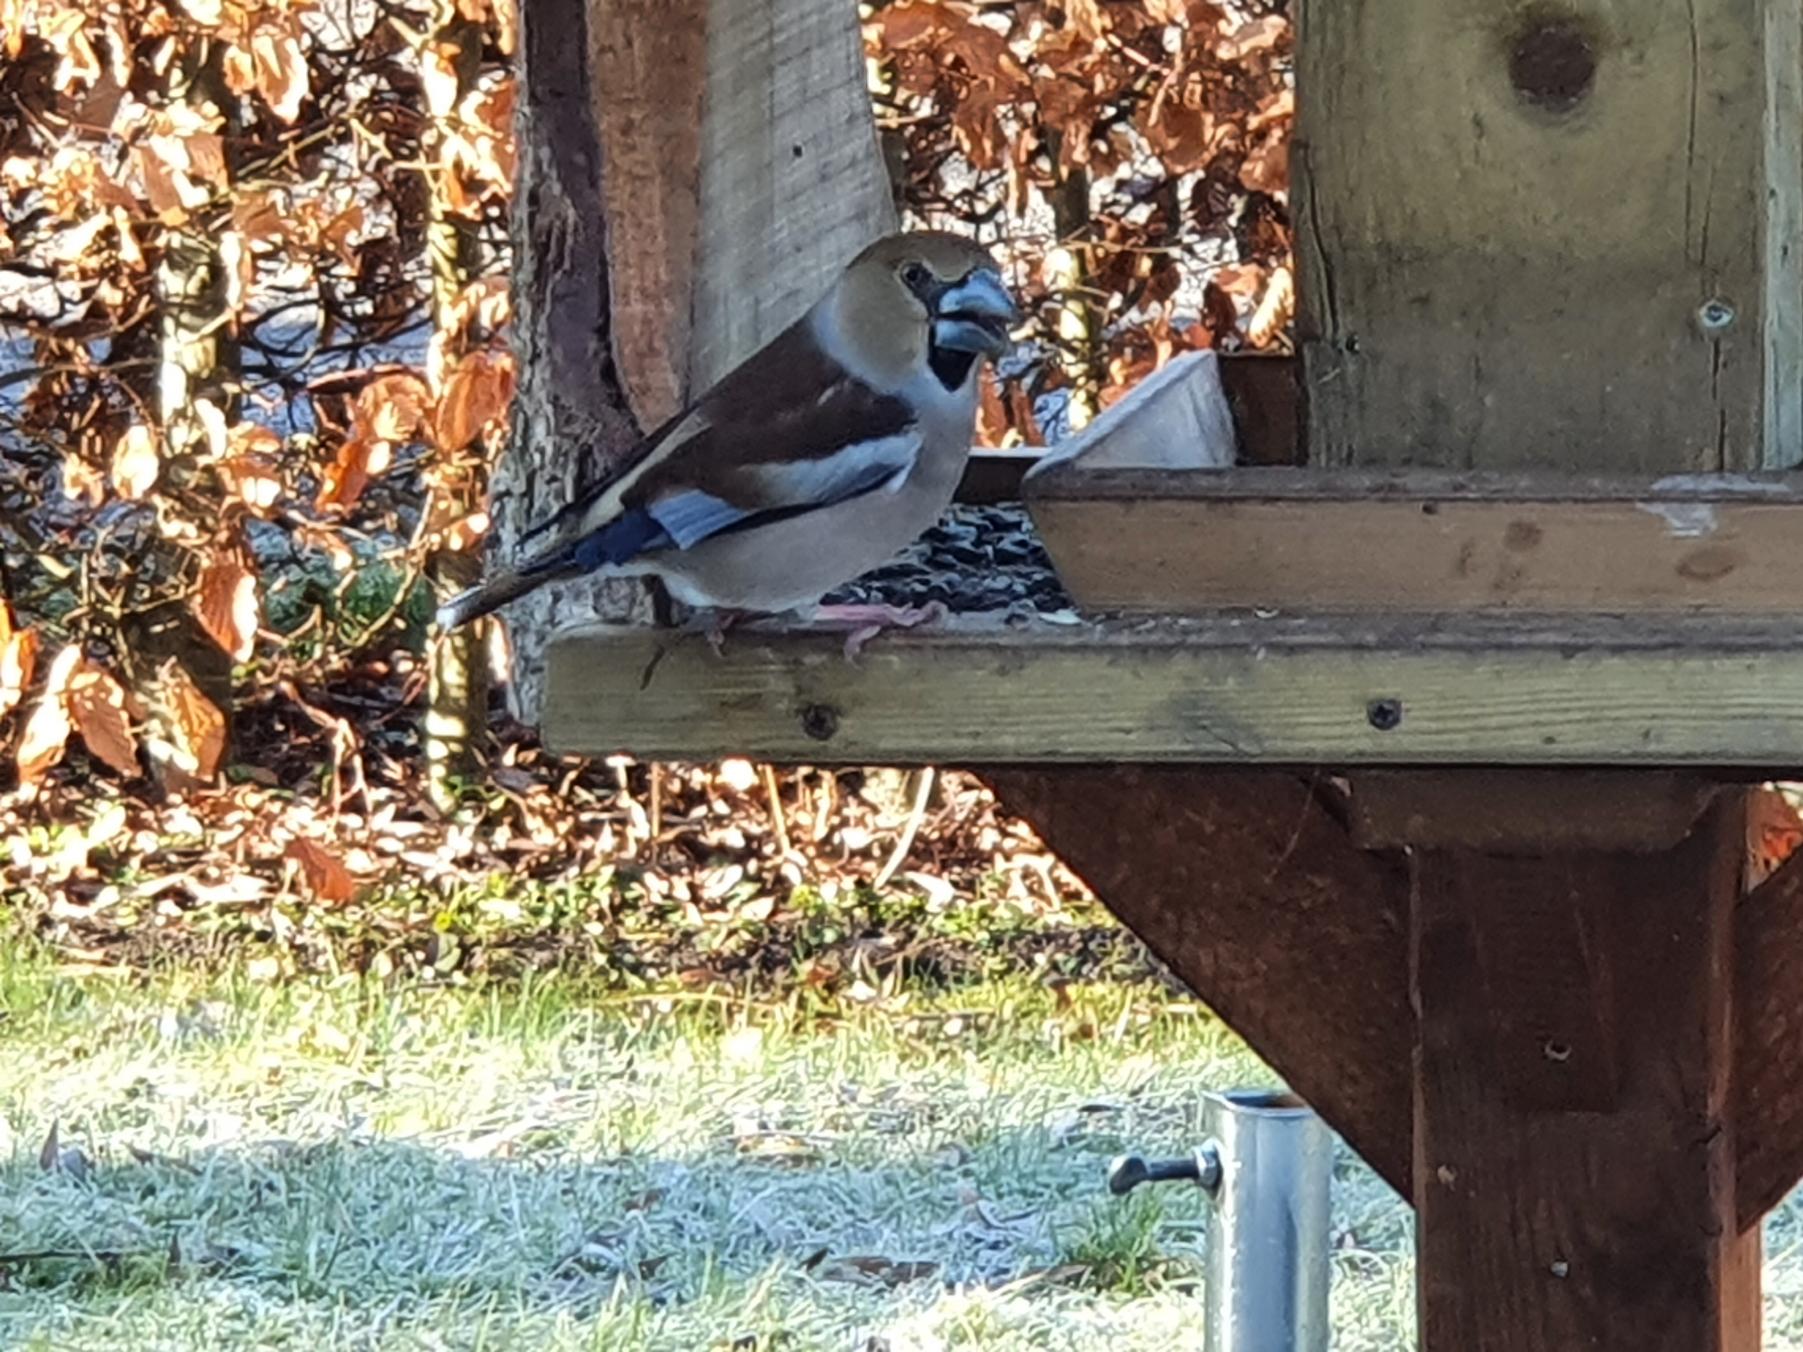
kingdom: Animalia
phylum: Chordata
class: Aves
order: Passeriformes
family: Fringillidae
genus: Coccothraustes
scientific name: Coccothraustes coccothraustes
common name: Kernebider
